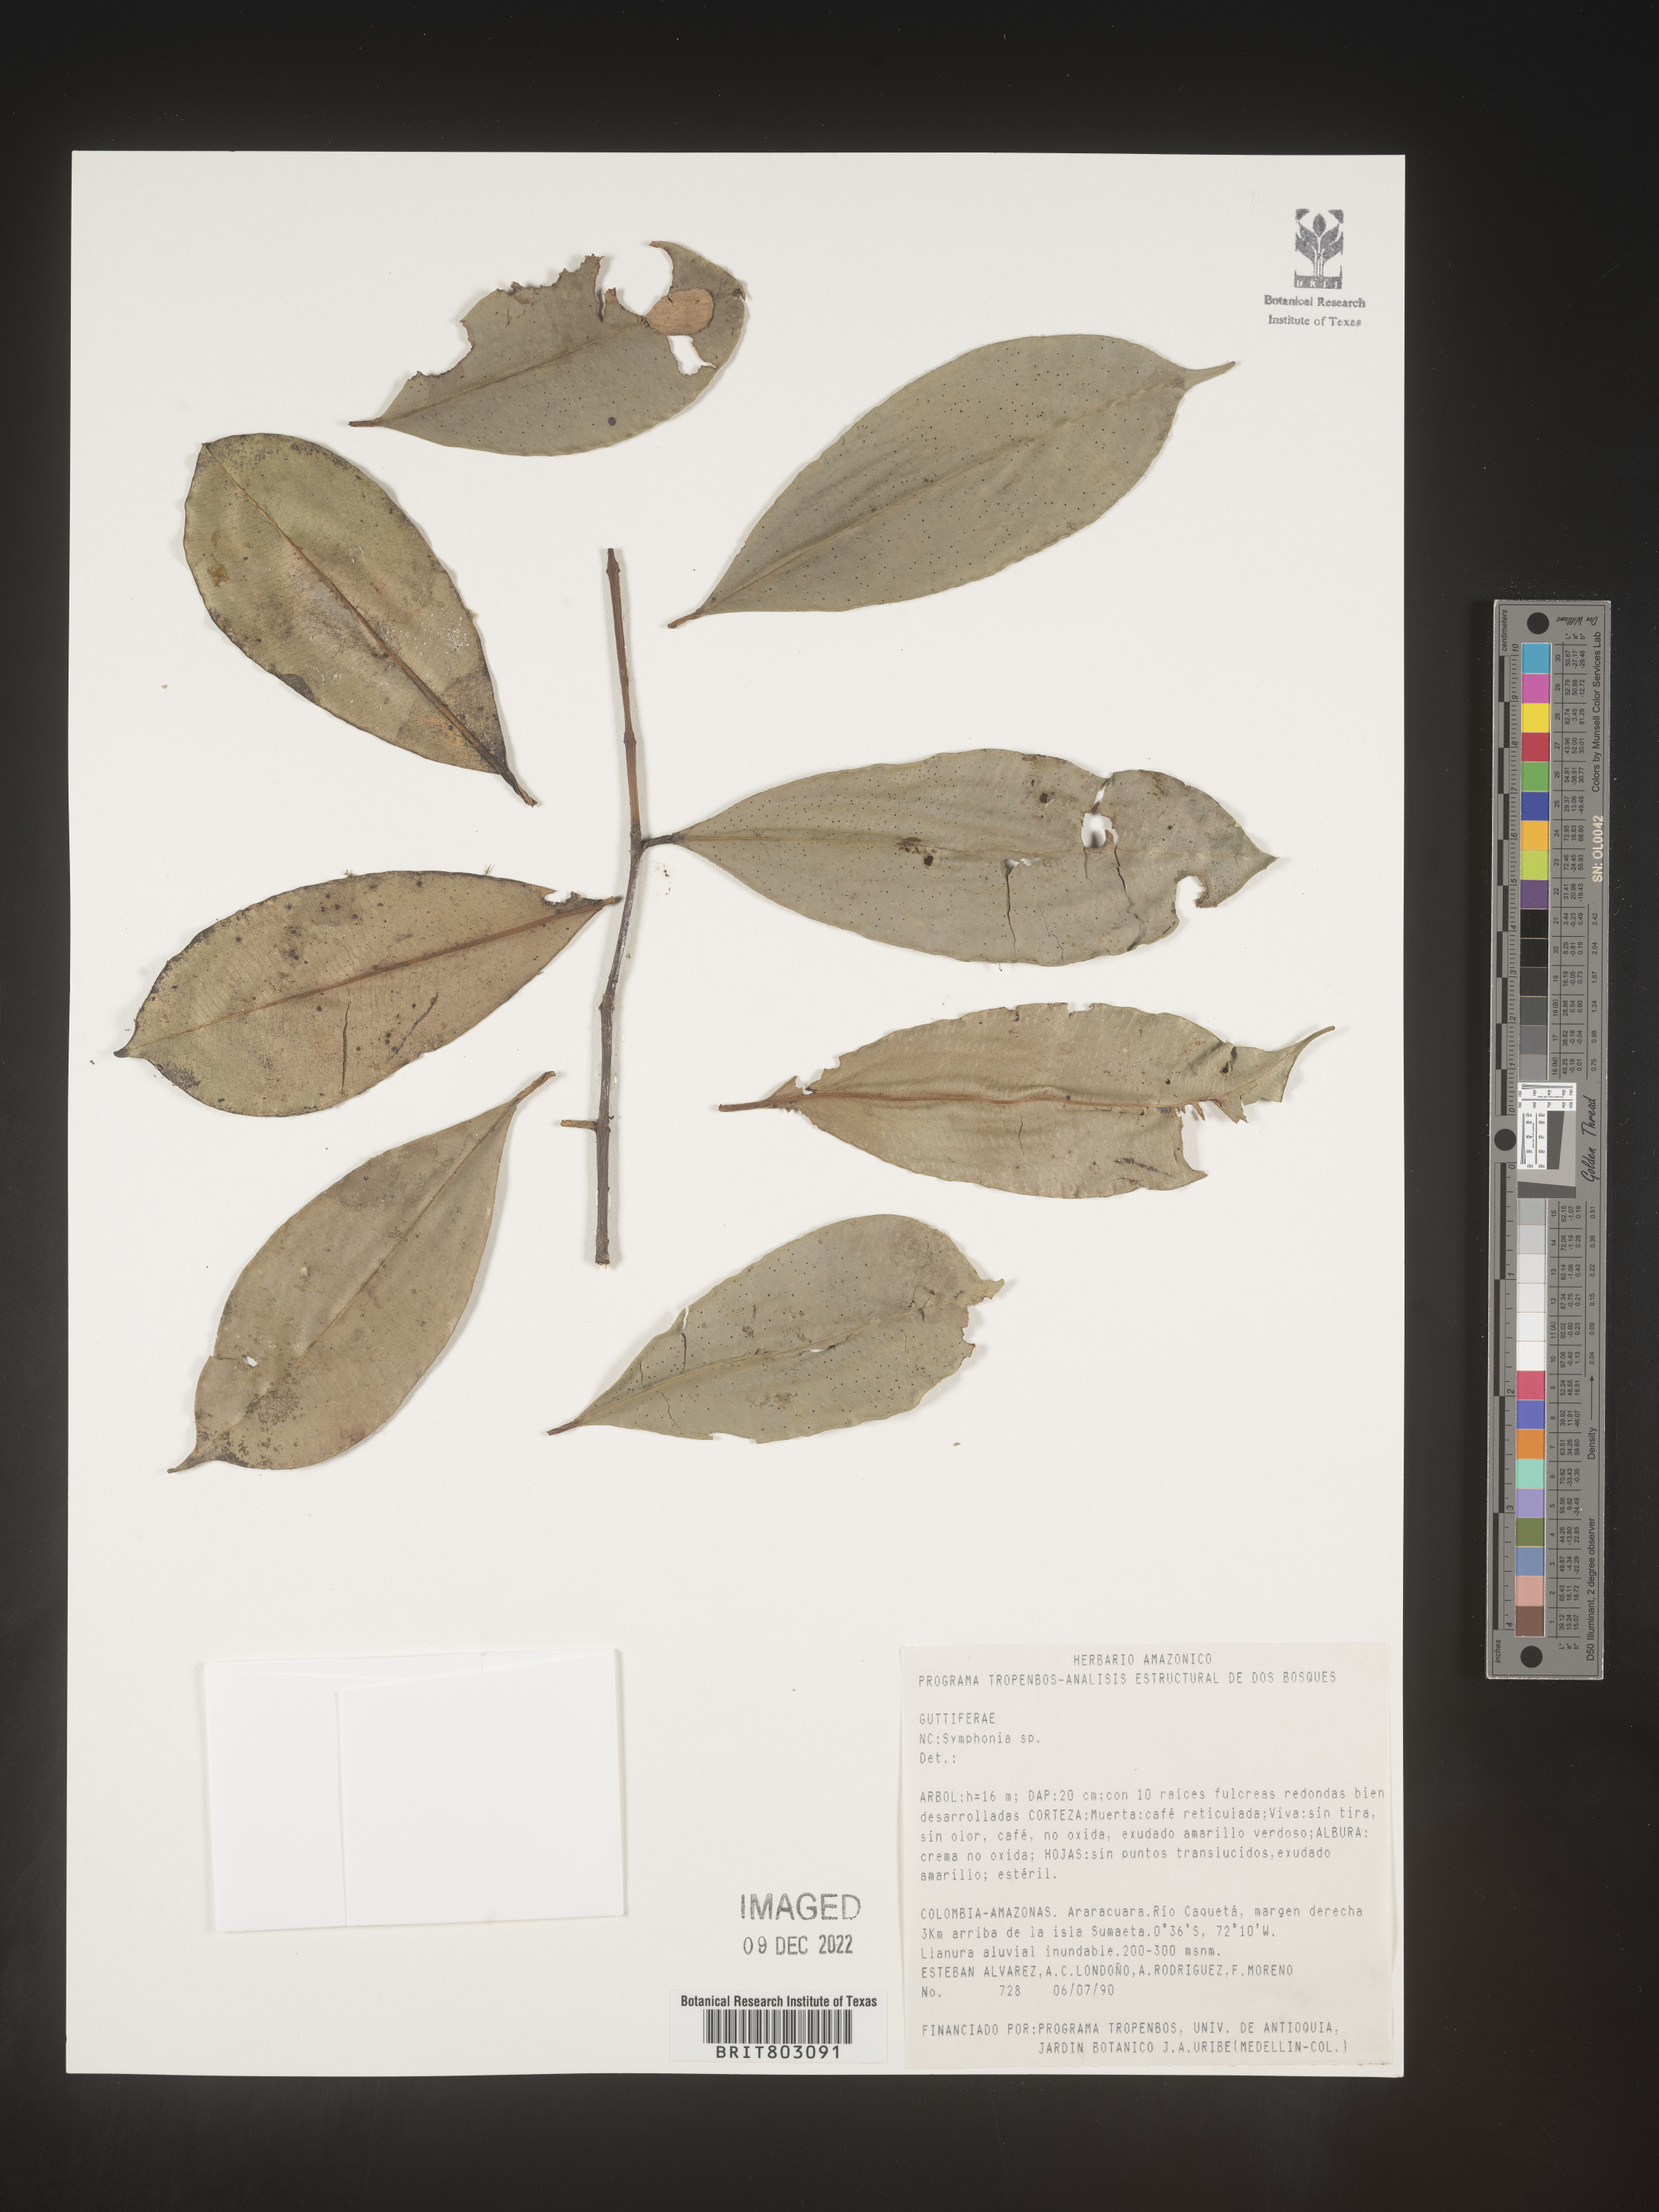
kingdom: Plantae
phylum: Tracheophyta
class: Magnoliopsida
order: Malpighiales
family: Clusiaceae
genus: Symphonia
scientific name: Symphonia
